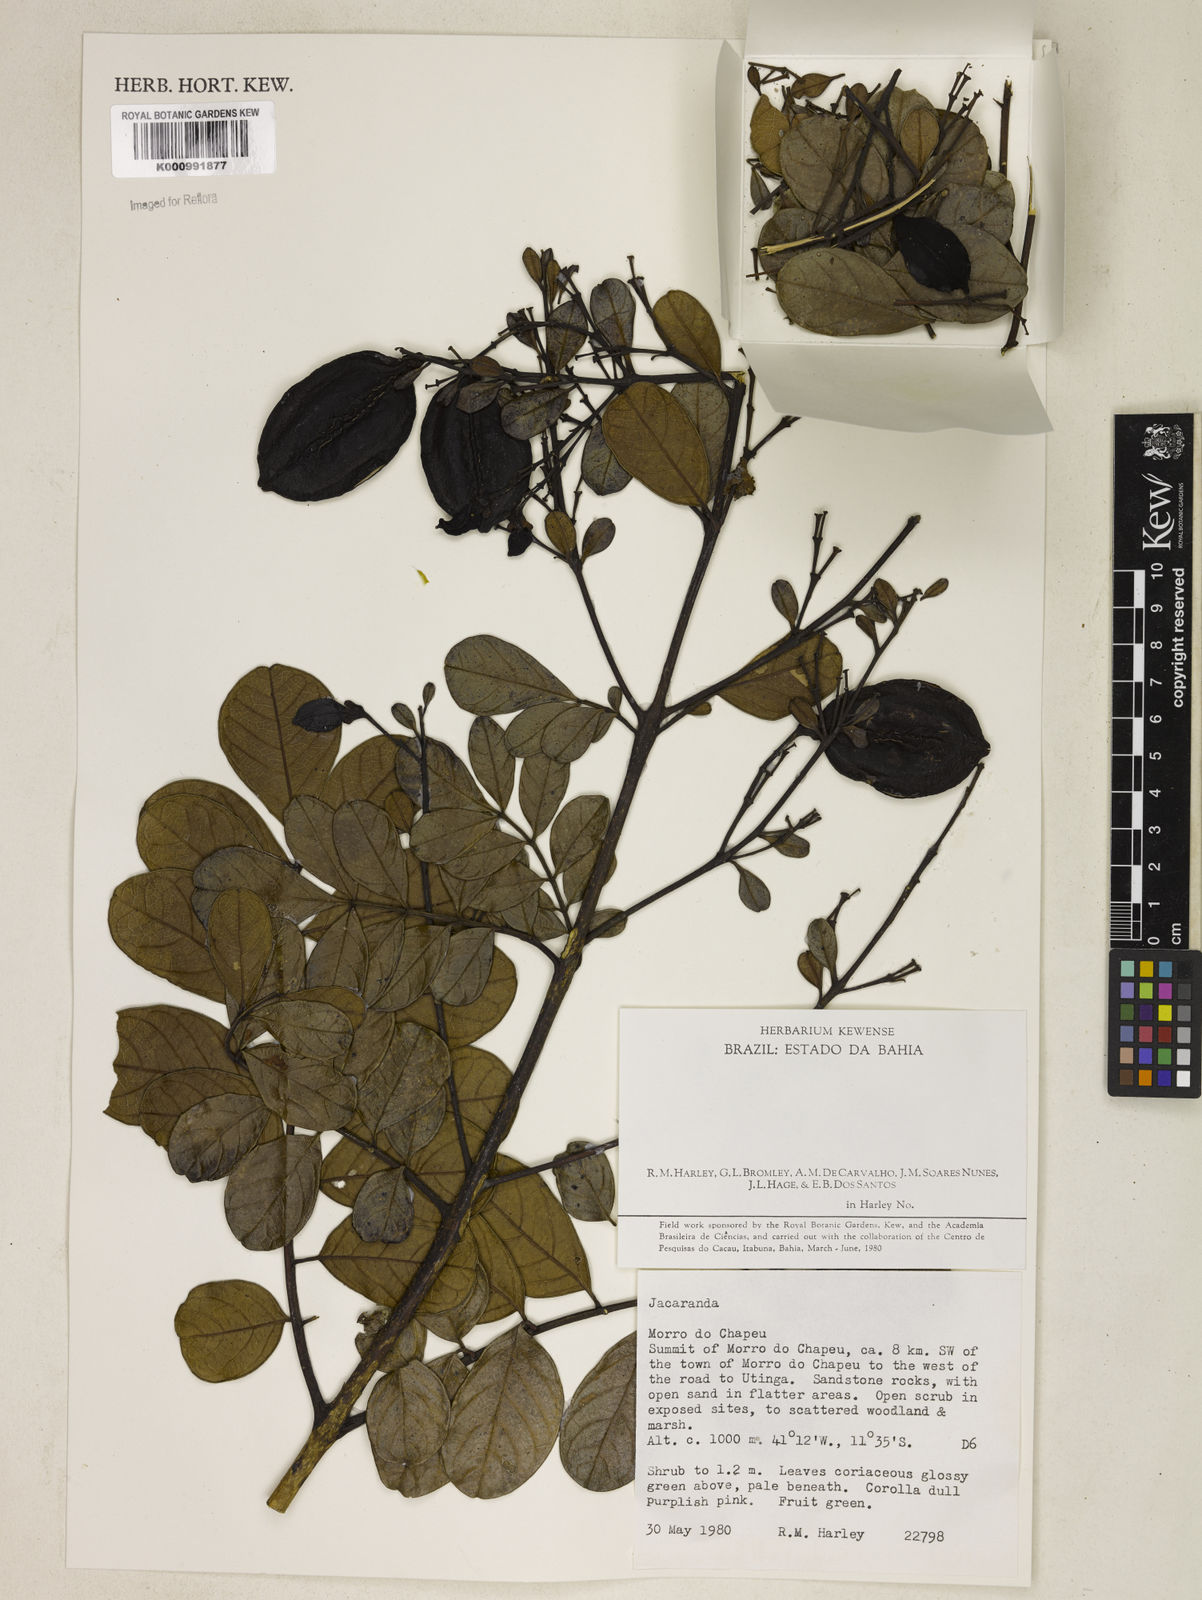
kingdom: Plantae
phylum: Tracheophyta
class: Magnoliopsida
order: Lamiales
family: Bignoniaceae
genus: Jacaranda
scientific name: Jacaranda
